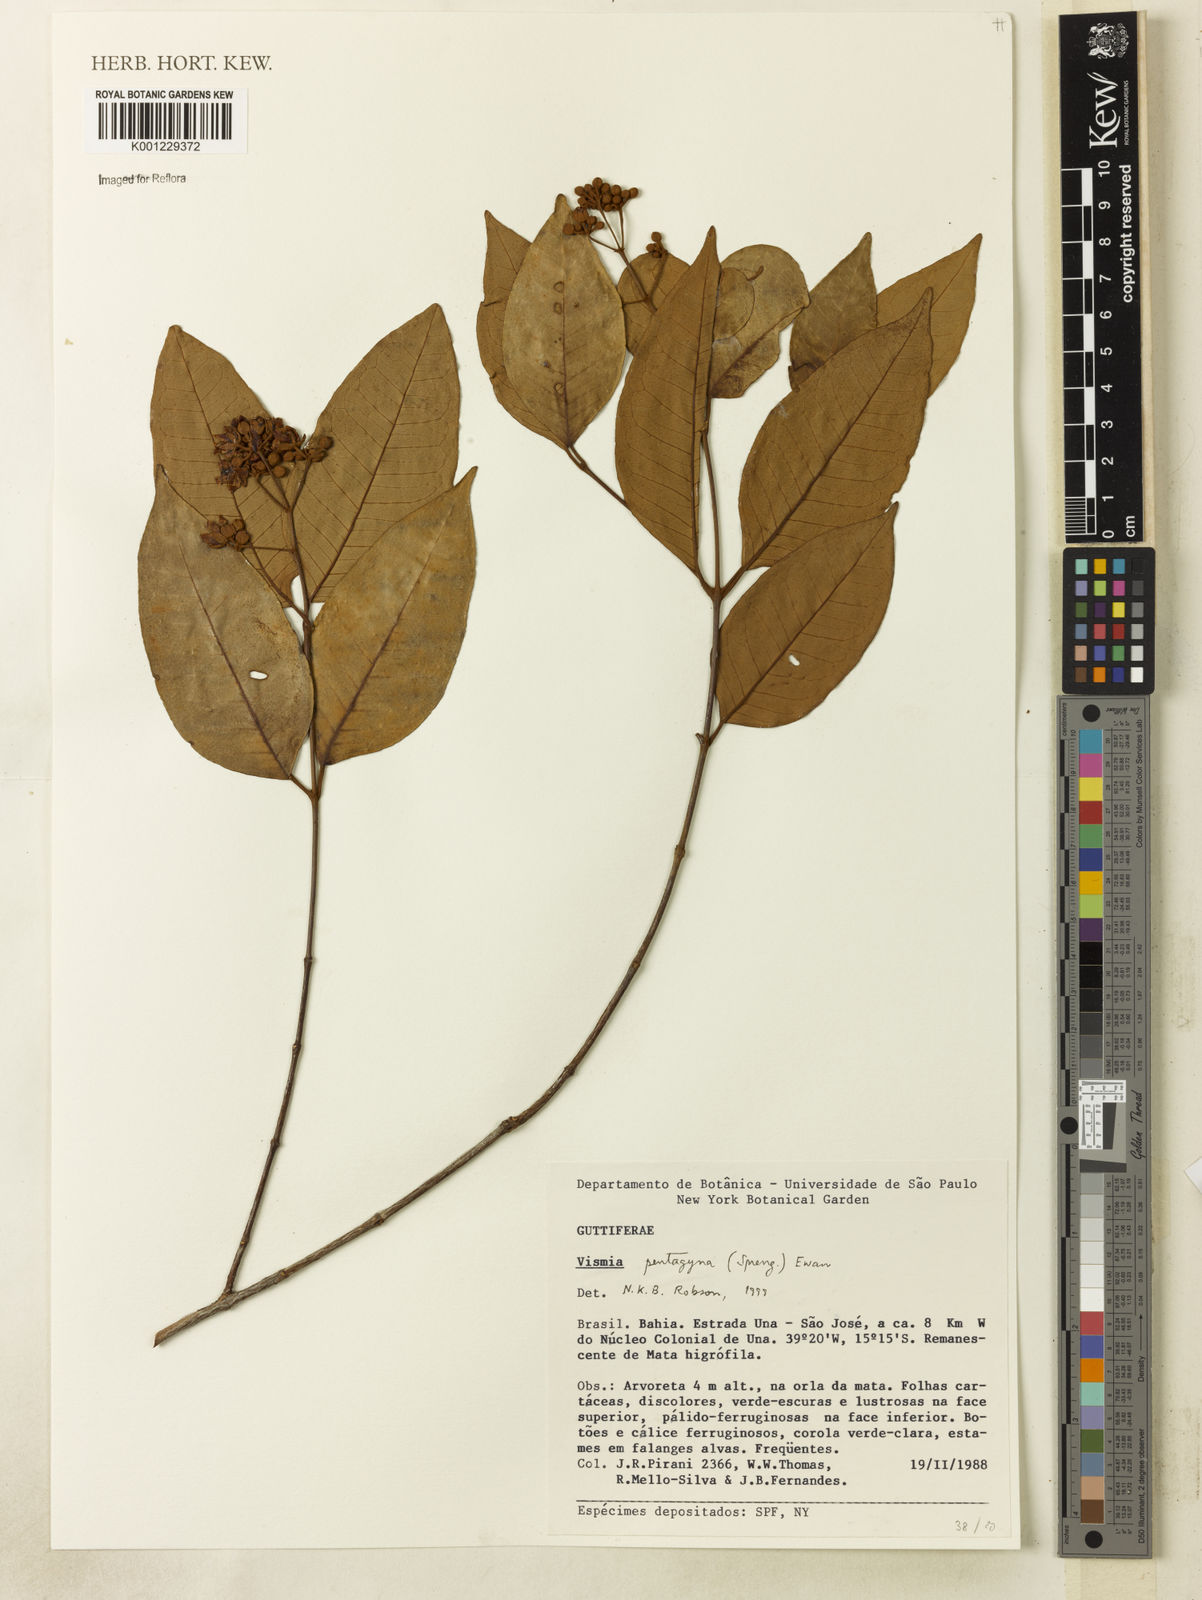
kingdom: Plantae
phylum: Tracheophyta
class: Magnoliopsida
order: Malpighiales
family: Hypericaceae
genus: Vismia
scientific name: Vismia pentagyna
